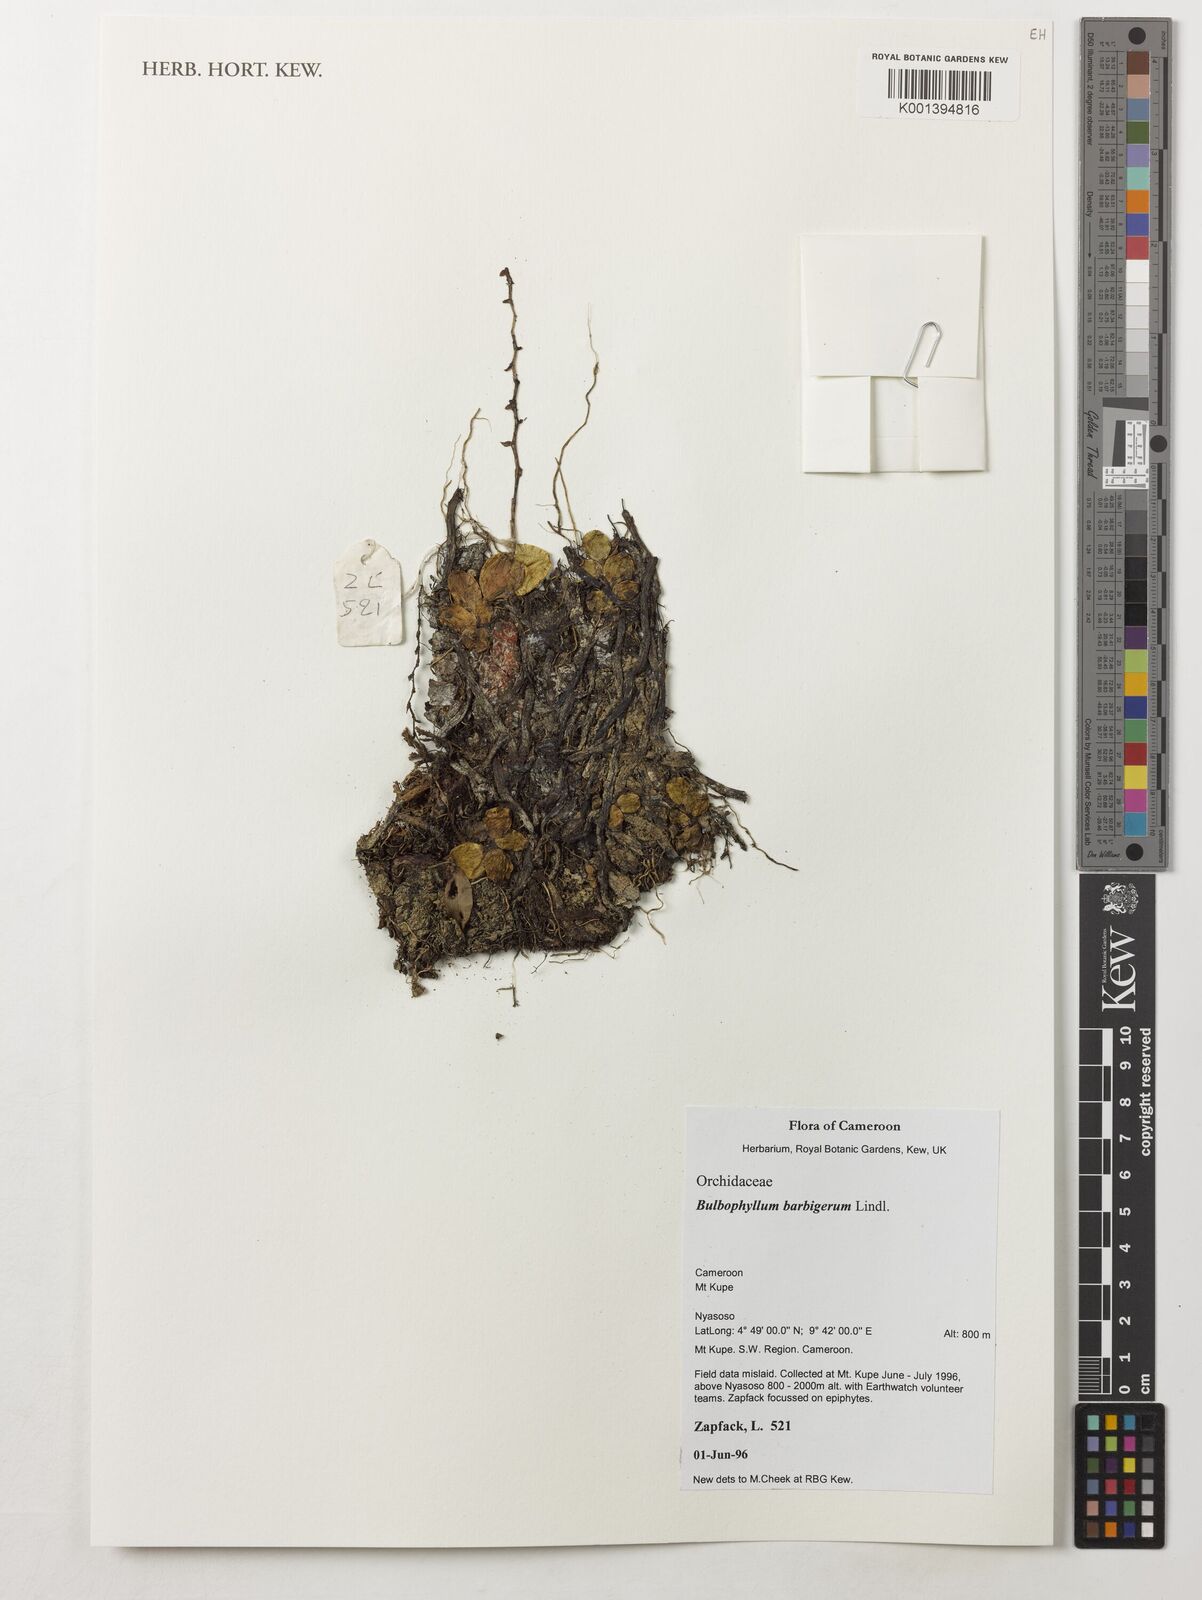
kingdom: Plantae
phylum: Tracheophyta
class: Liliopsida
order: Asparagales
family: Orchidaceae
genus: Bulbophyllum
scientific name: Bulbophyllum barbigerum
